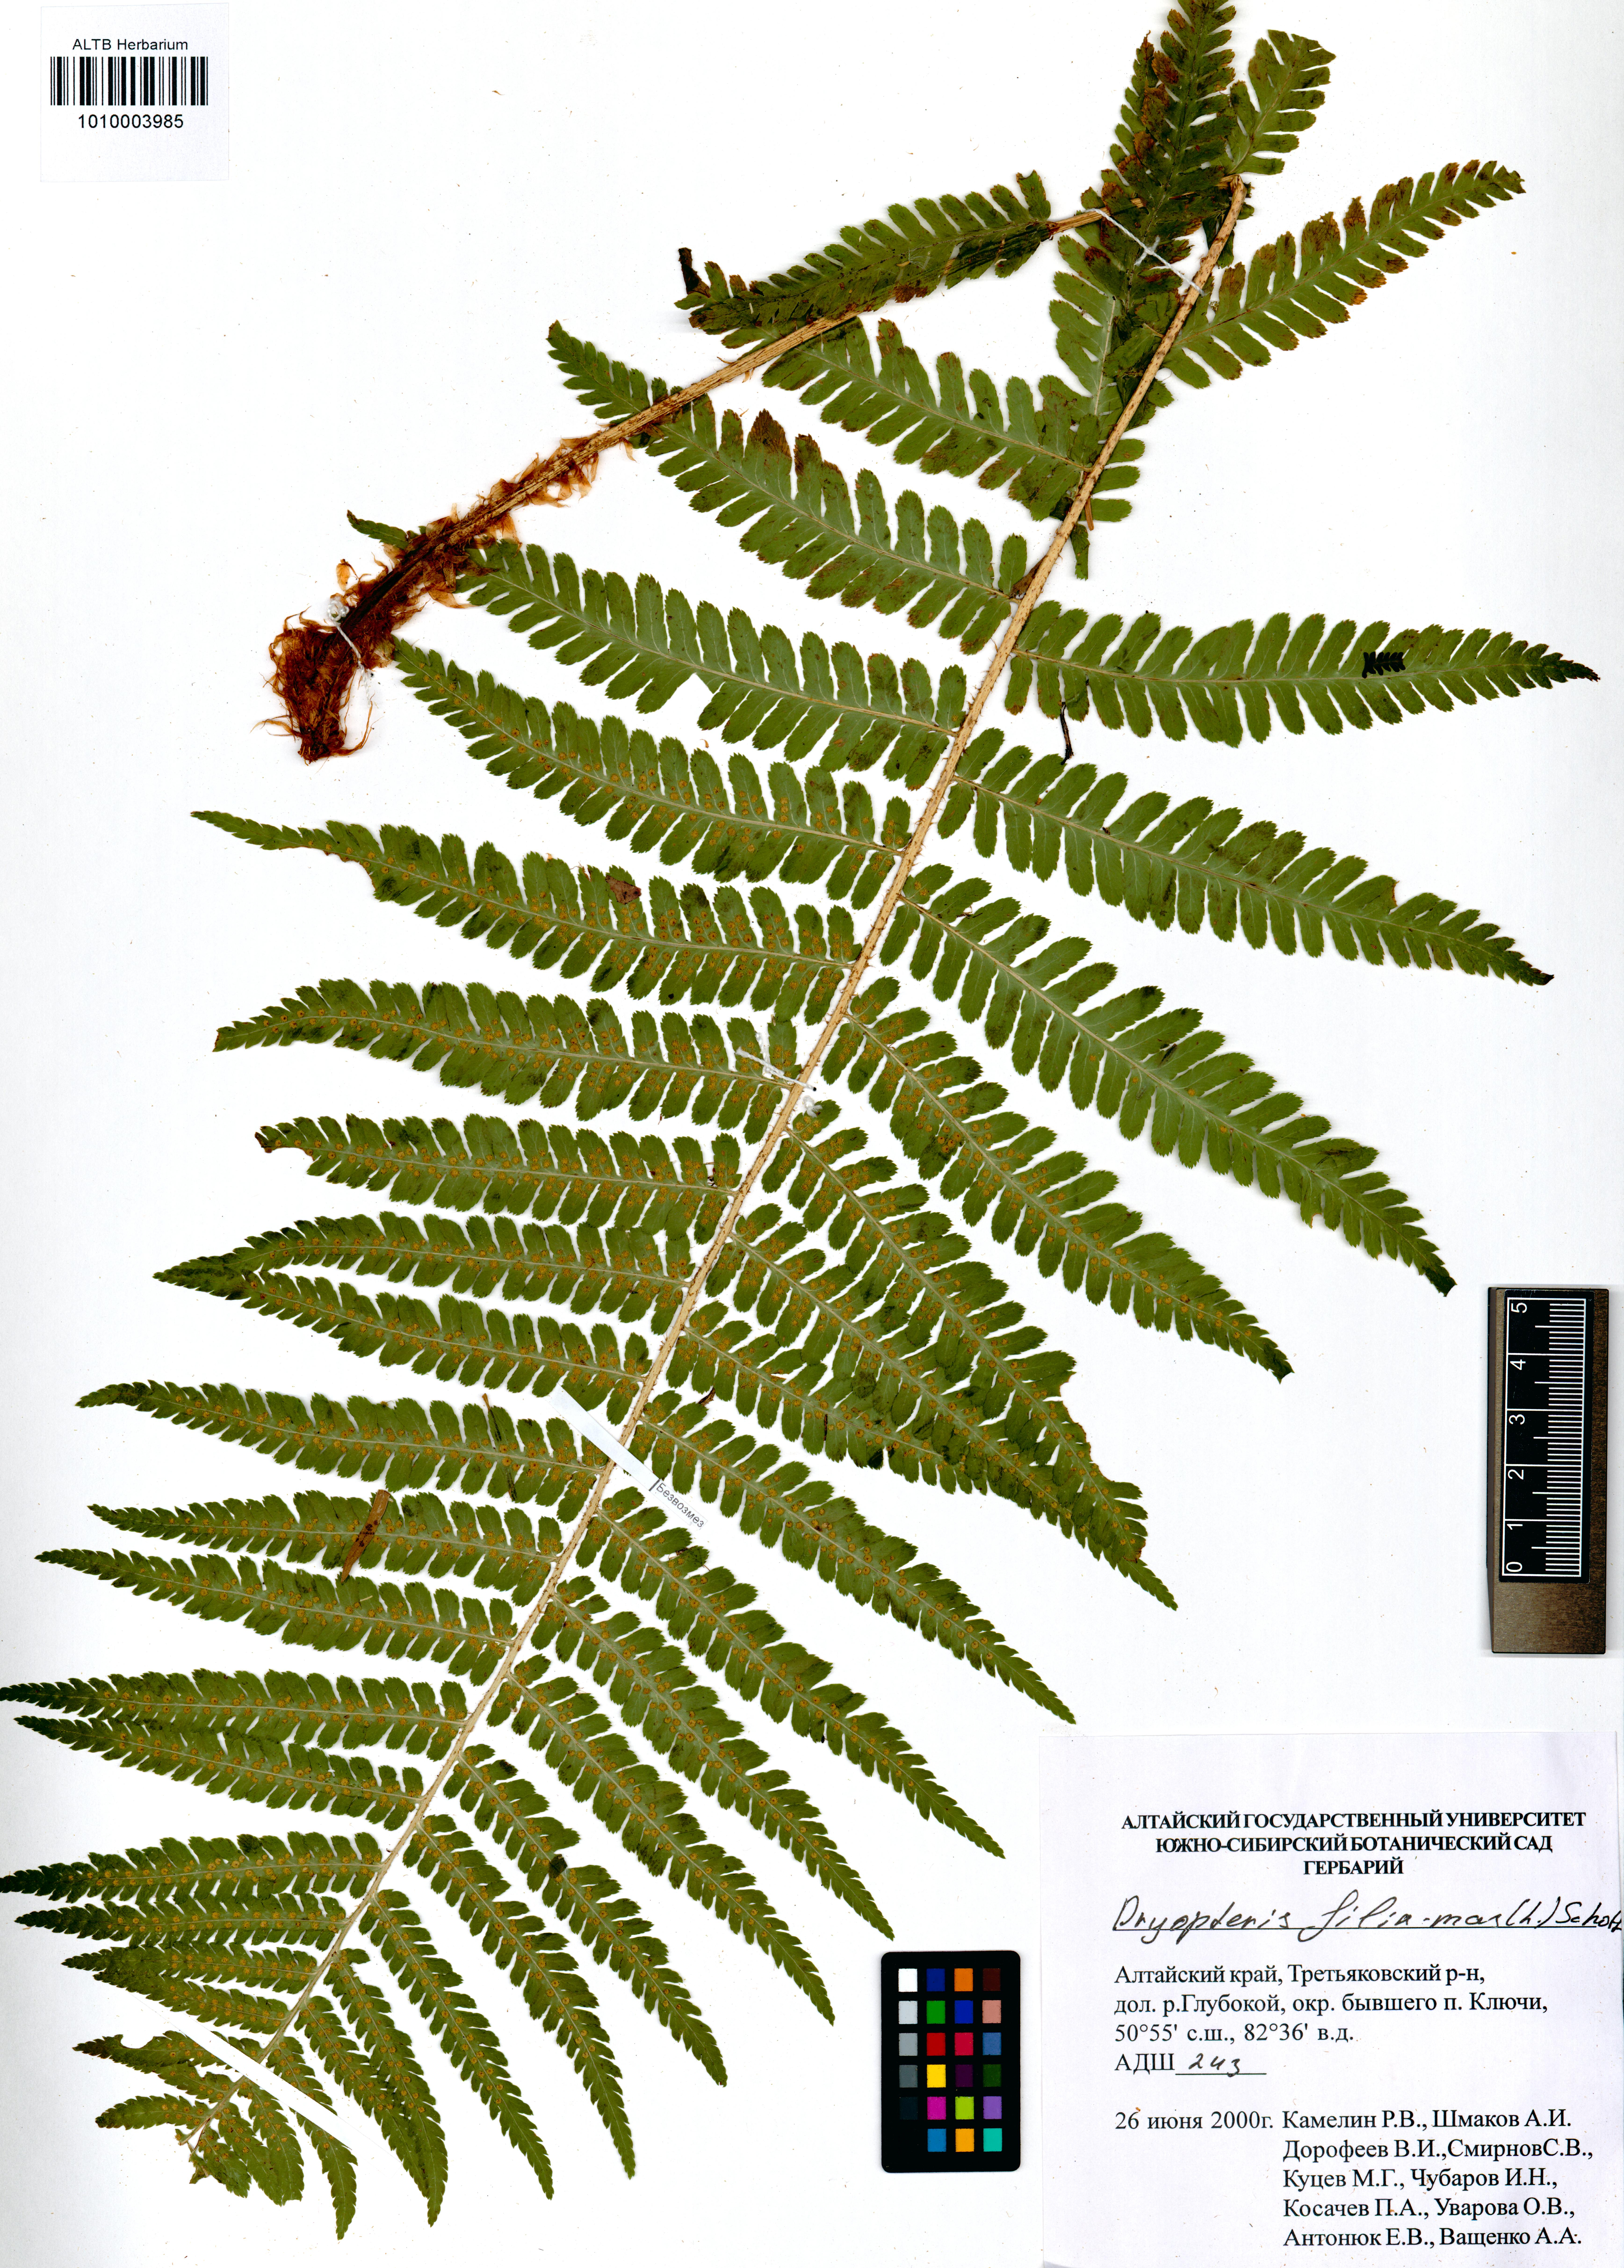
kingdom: Plantae
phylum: Tracheophyta
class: Polypodiopsida
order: Polypodiales
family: Dryopteridaceae
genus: Dryopteris
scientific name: Dryopteris filix-mas
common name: Male fern
